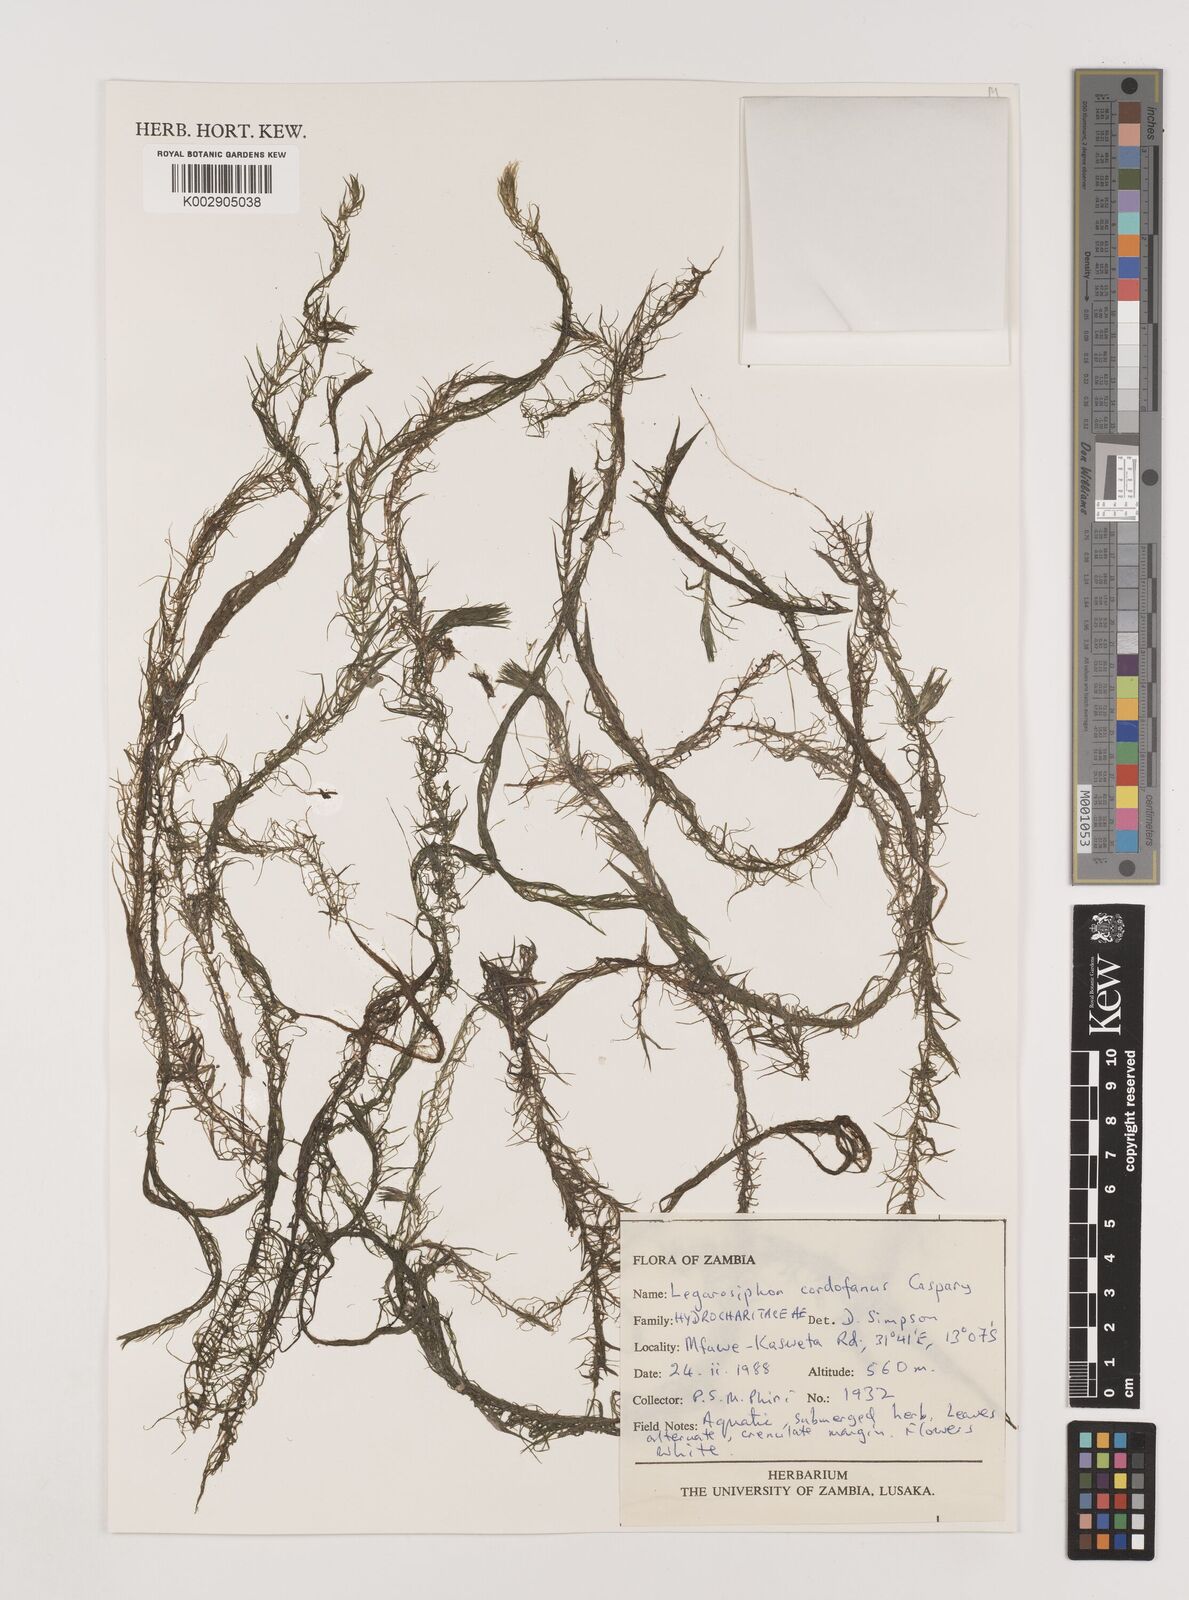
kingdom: Plantae
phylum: Tracheophyta
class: Liliopsida
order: Alismatales
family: Hydrocharitaceae
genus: Lagarosiphon
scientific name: Lagarosiphon cordofanus
